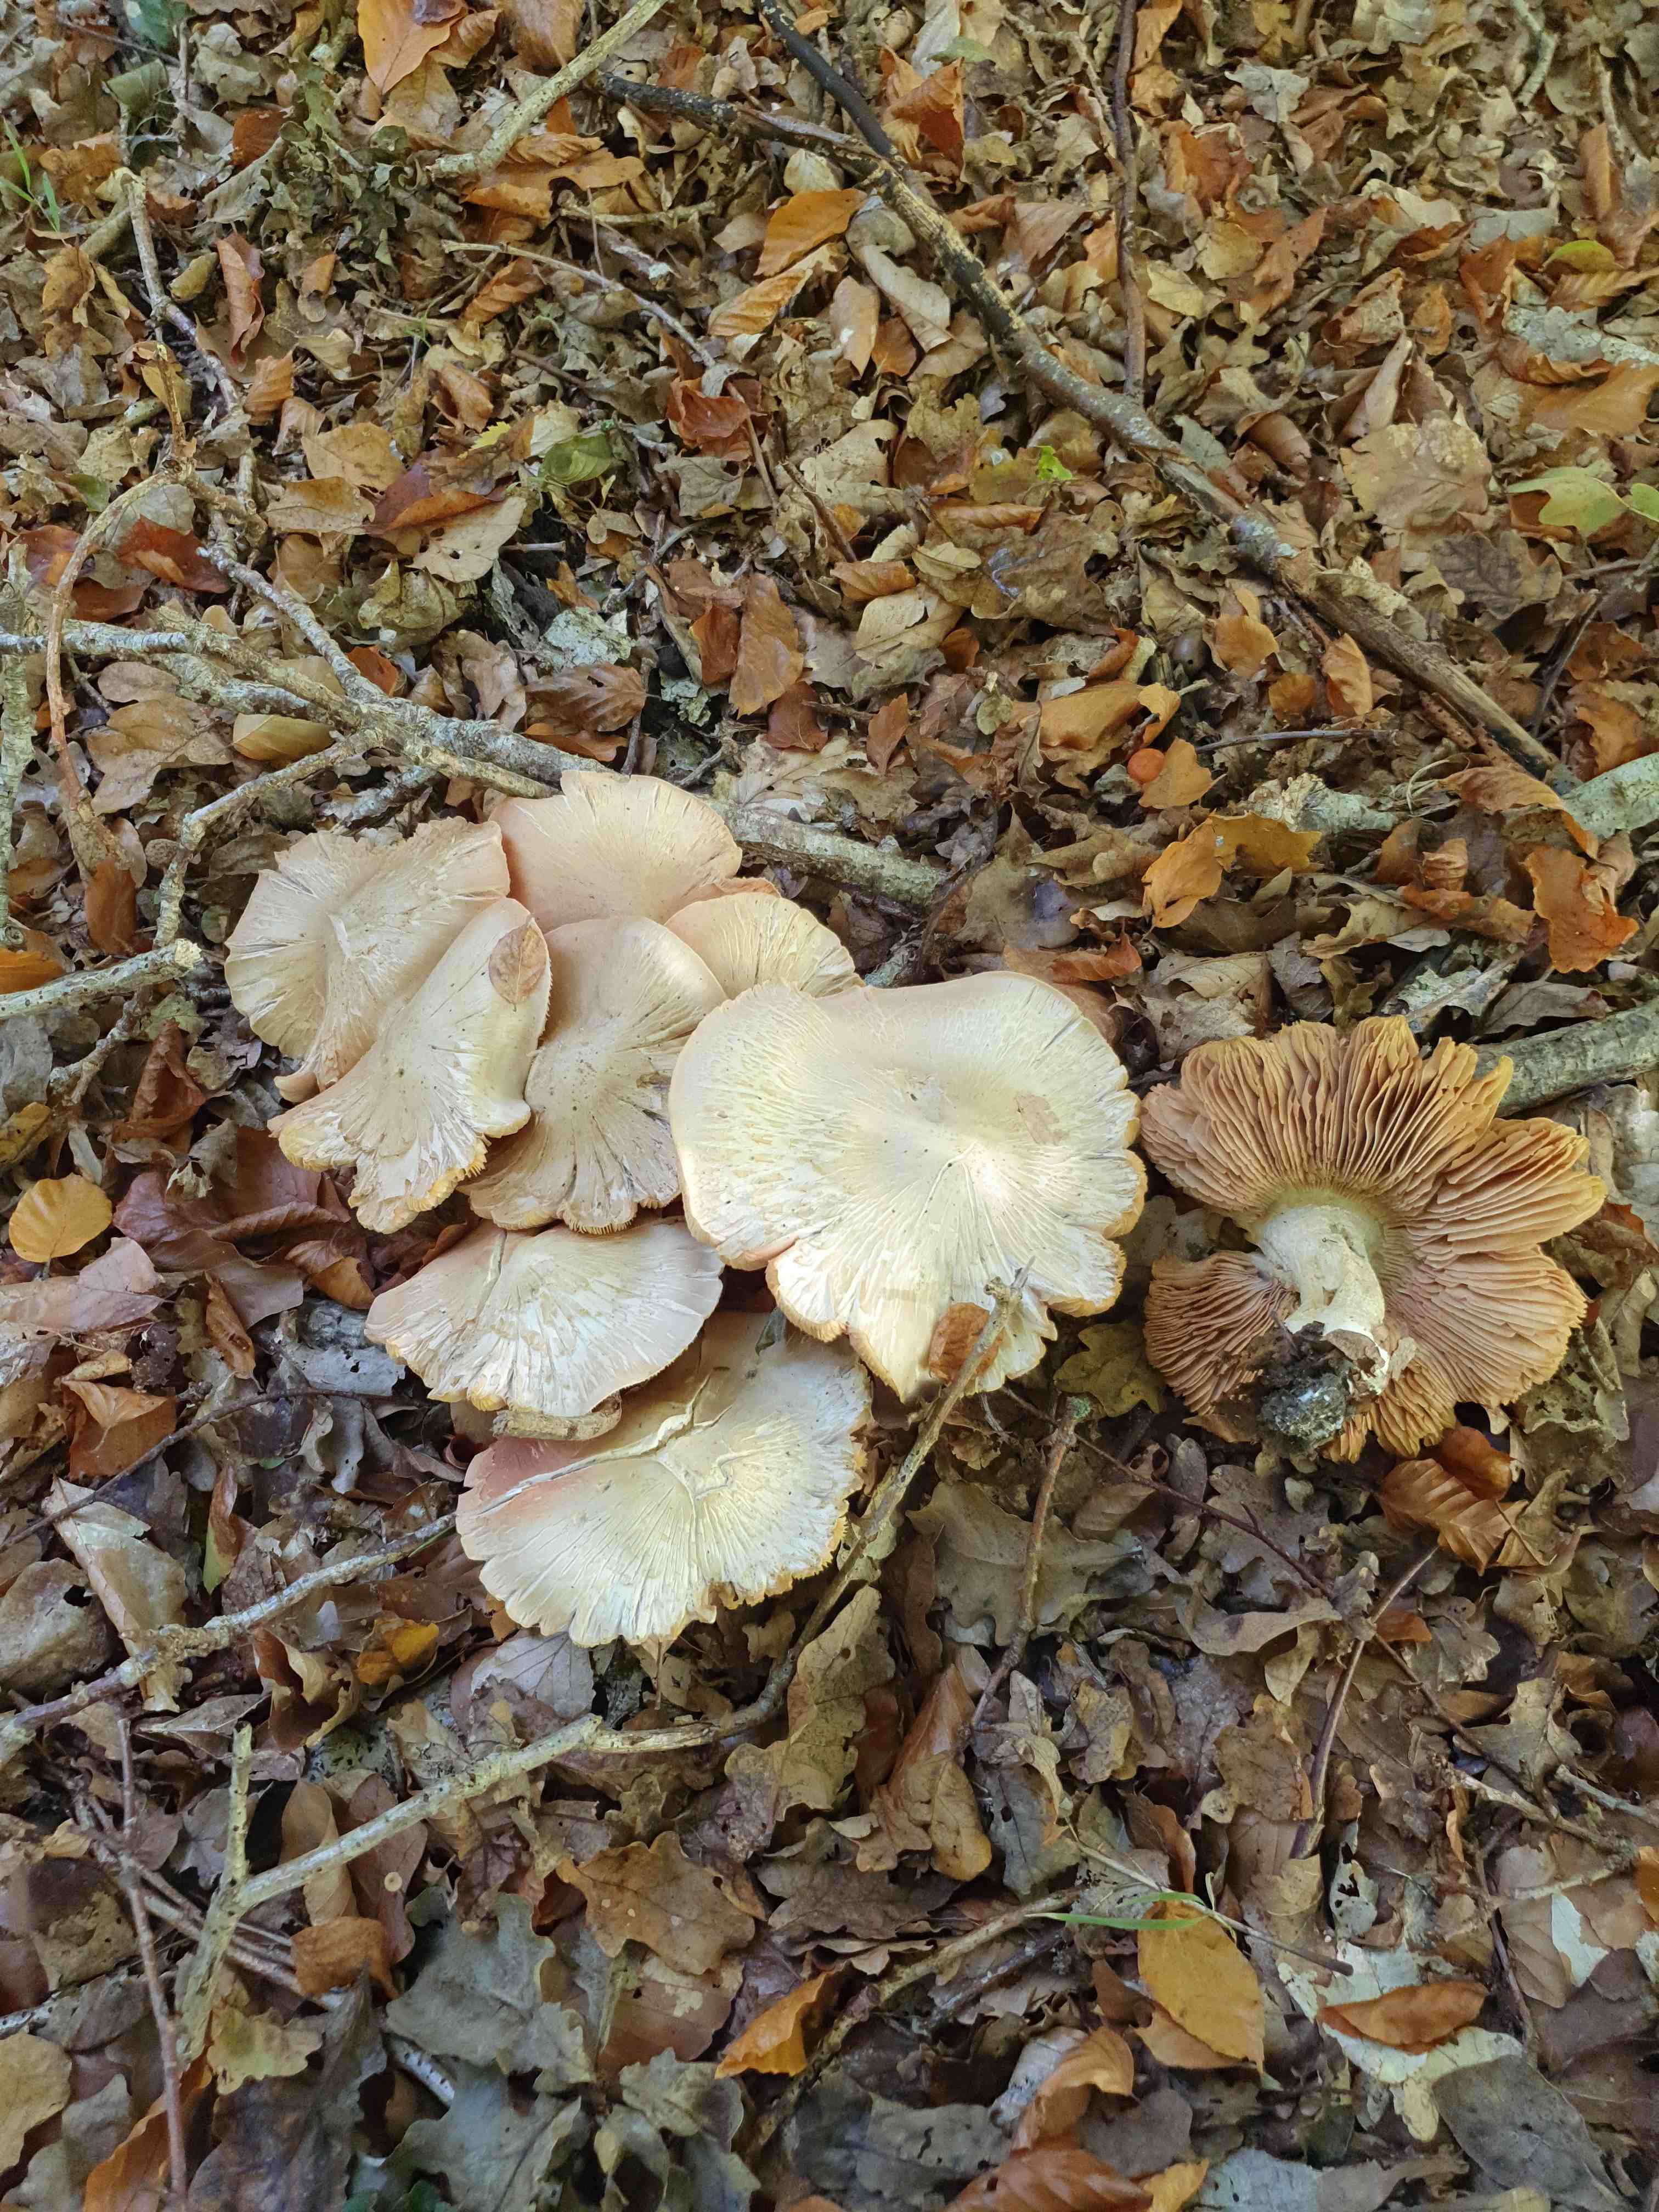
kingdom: Fungi
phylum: Basidiomycota
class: Agaricomycetes
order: Agaricales
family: Entolomataceae
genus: Entoloma
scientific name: Entoloma sinuatum
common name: giftig rødblad
